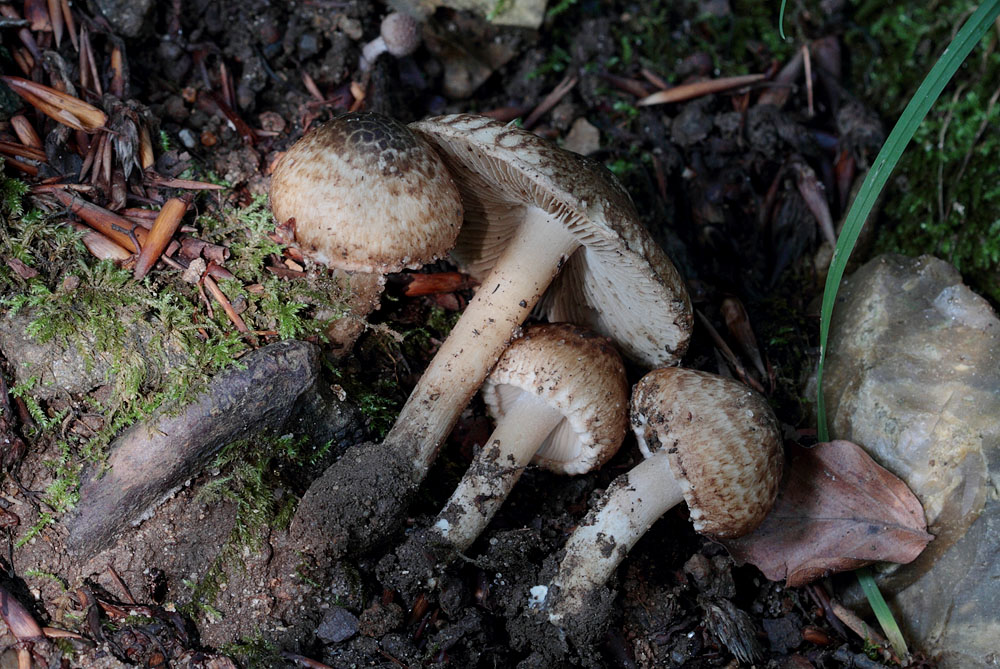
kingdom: Fungi
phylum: Basidiomycota
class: Agaricomycetes
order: Agaricales
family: Inocybaceae
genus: Inosperma
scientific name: Inosperma bongardii
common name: Bongards trævlhat
